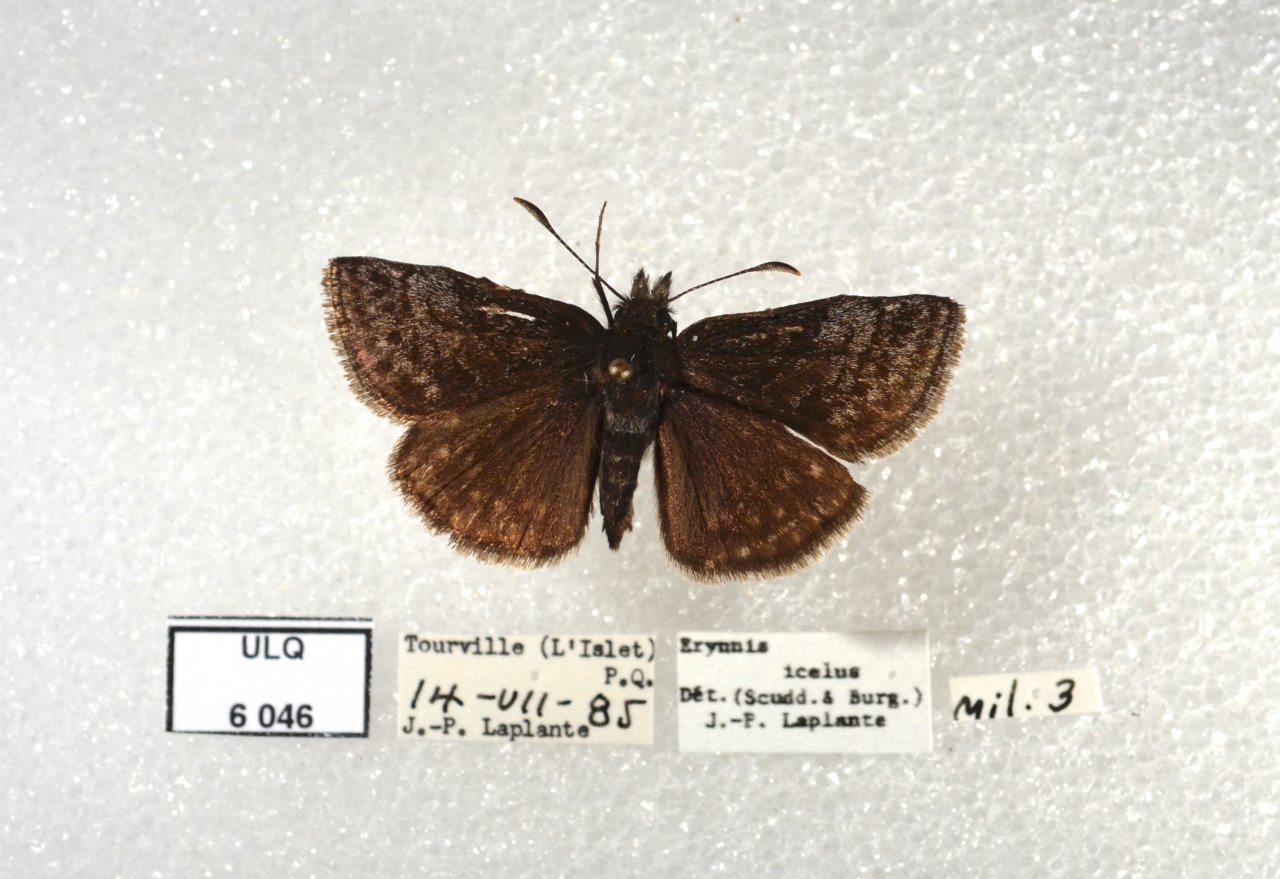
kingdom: Animalia
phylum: Arthropoda
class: Insecta
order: Lepidoptera
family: Hesperiidae
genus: Erynnis
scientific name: Erynnis icelus
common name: Dreamy Duskywing
